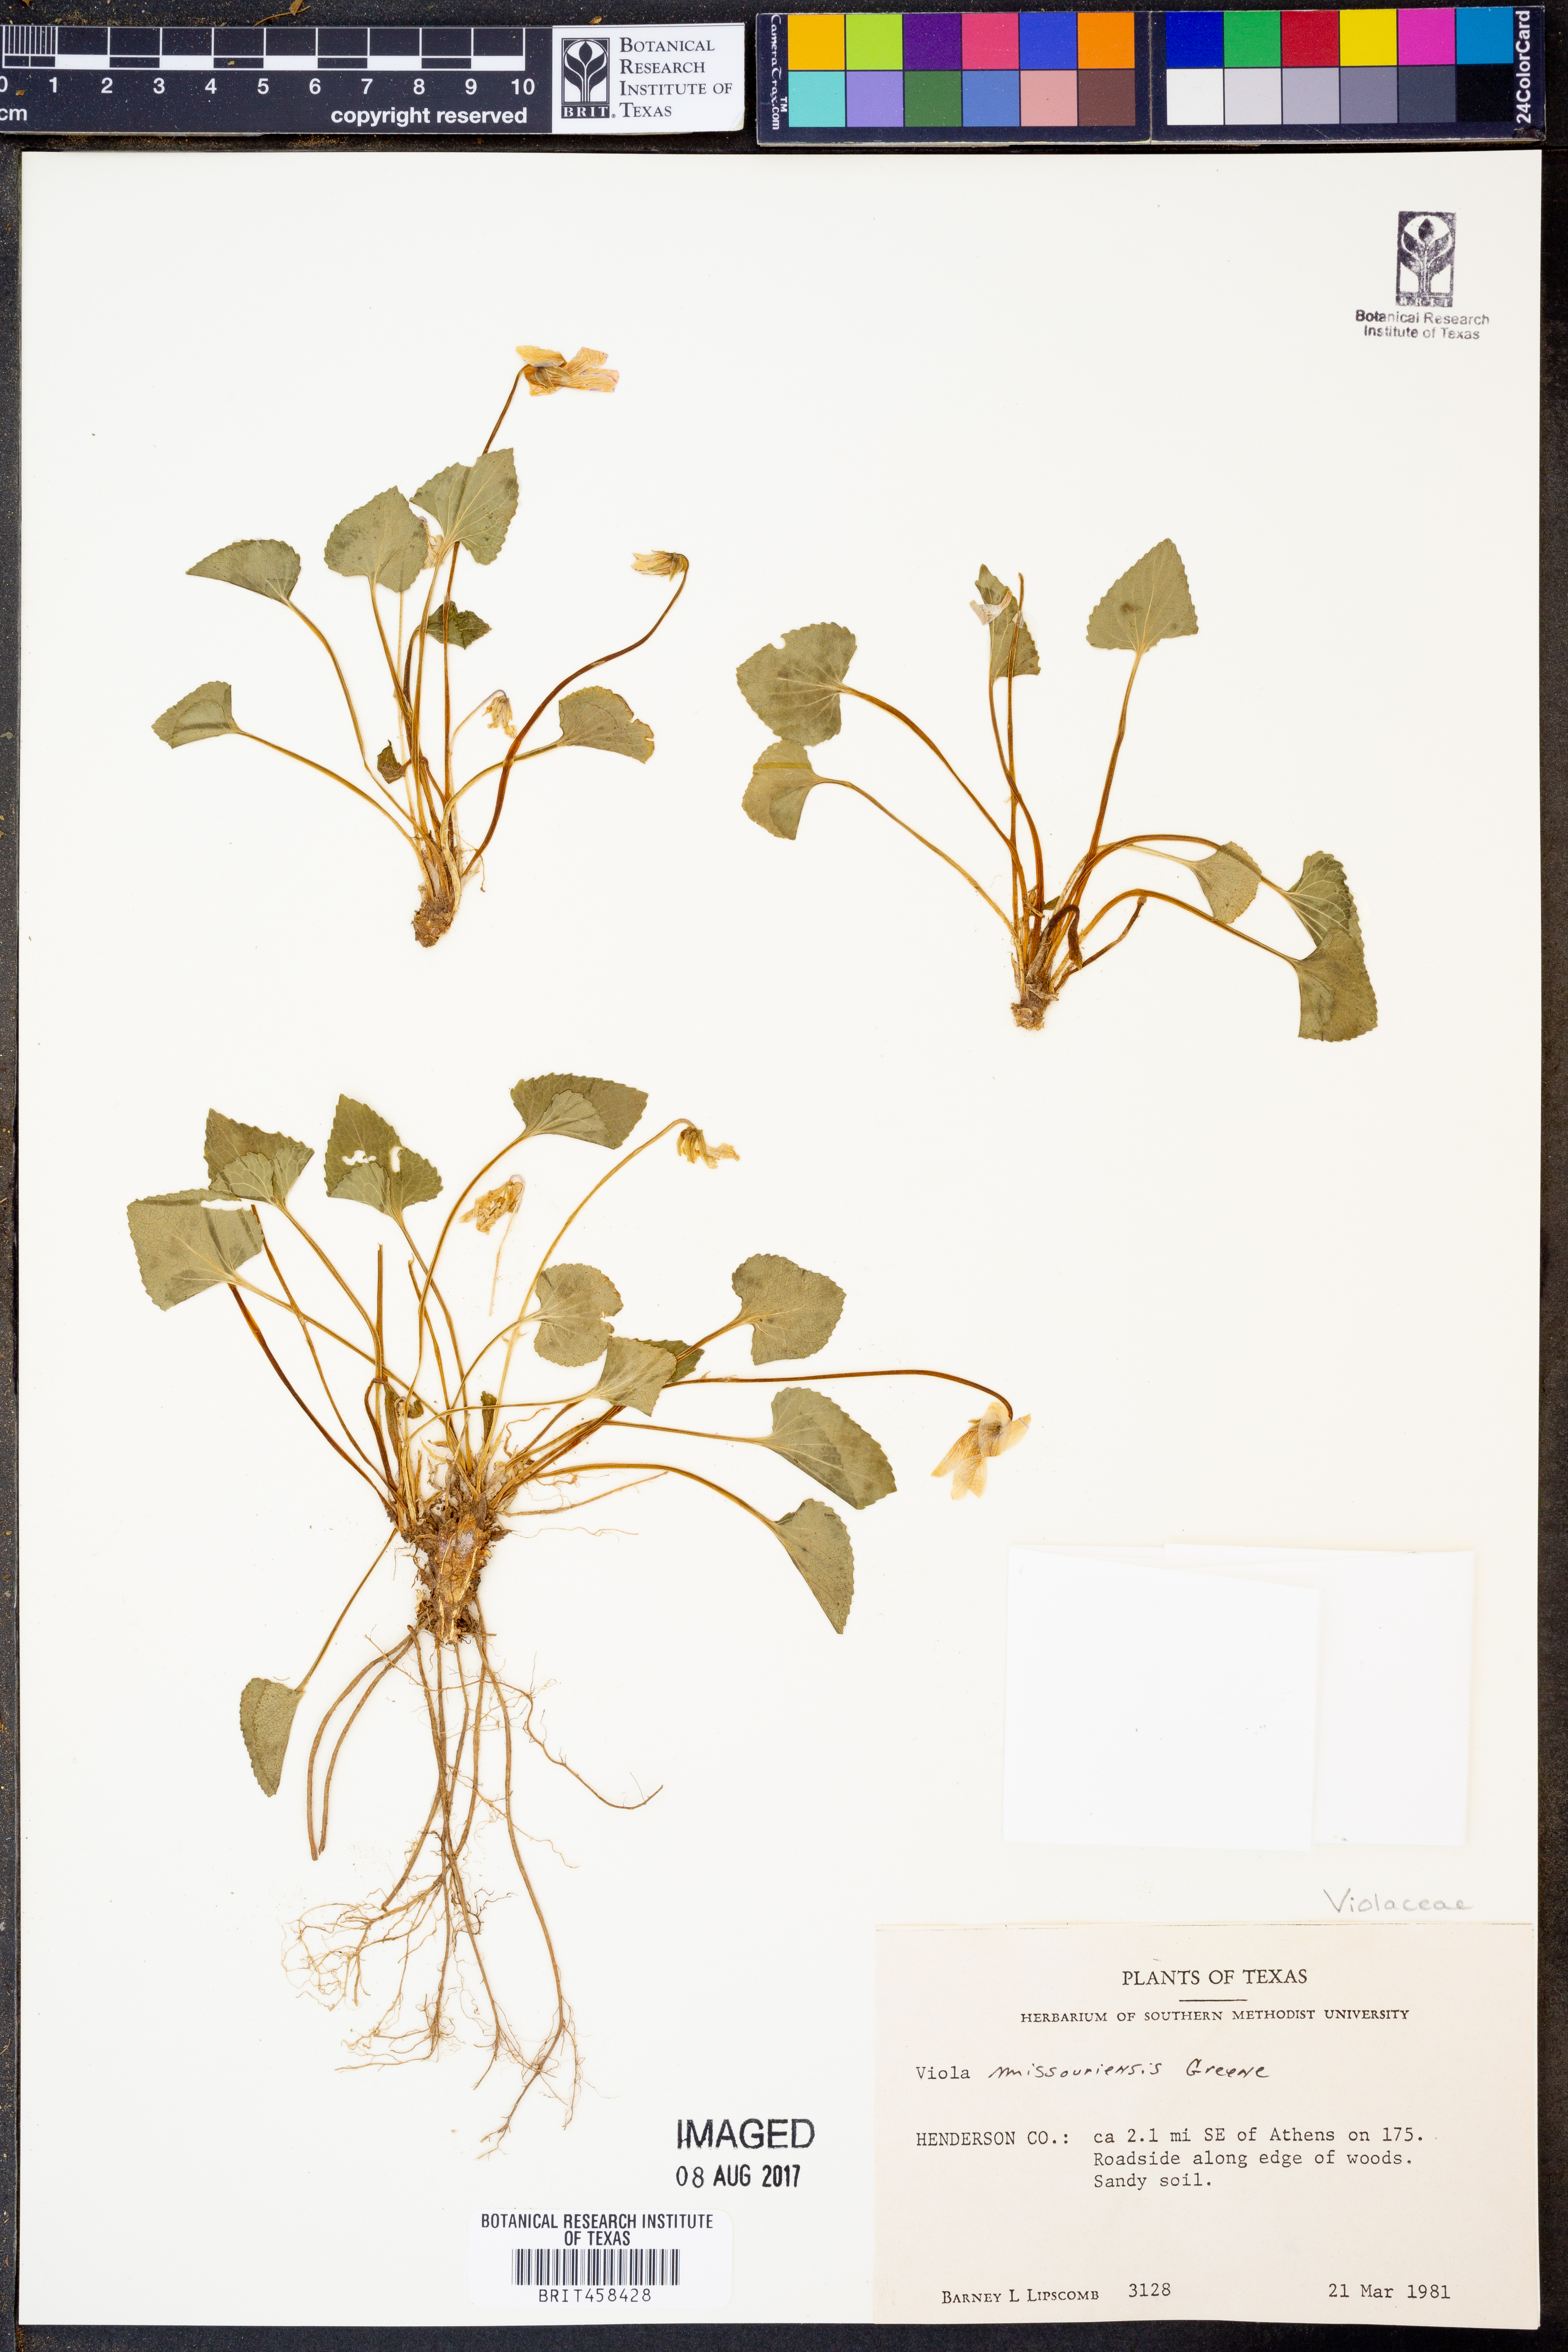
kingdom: Plantae
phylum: Tracheophyta
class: Magnoliopsida
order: Malpighiales
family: Violaceae
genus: Viola
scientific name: Viola missouriensis
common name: Missouri violet
